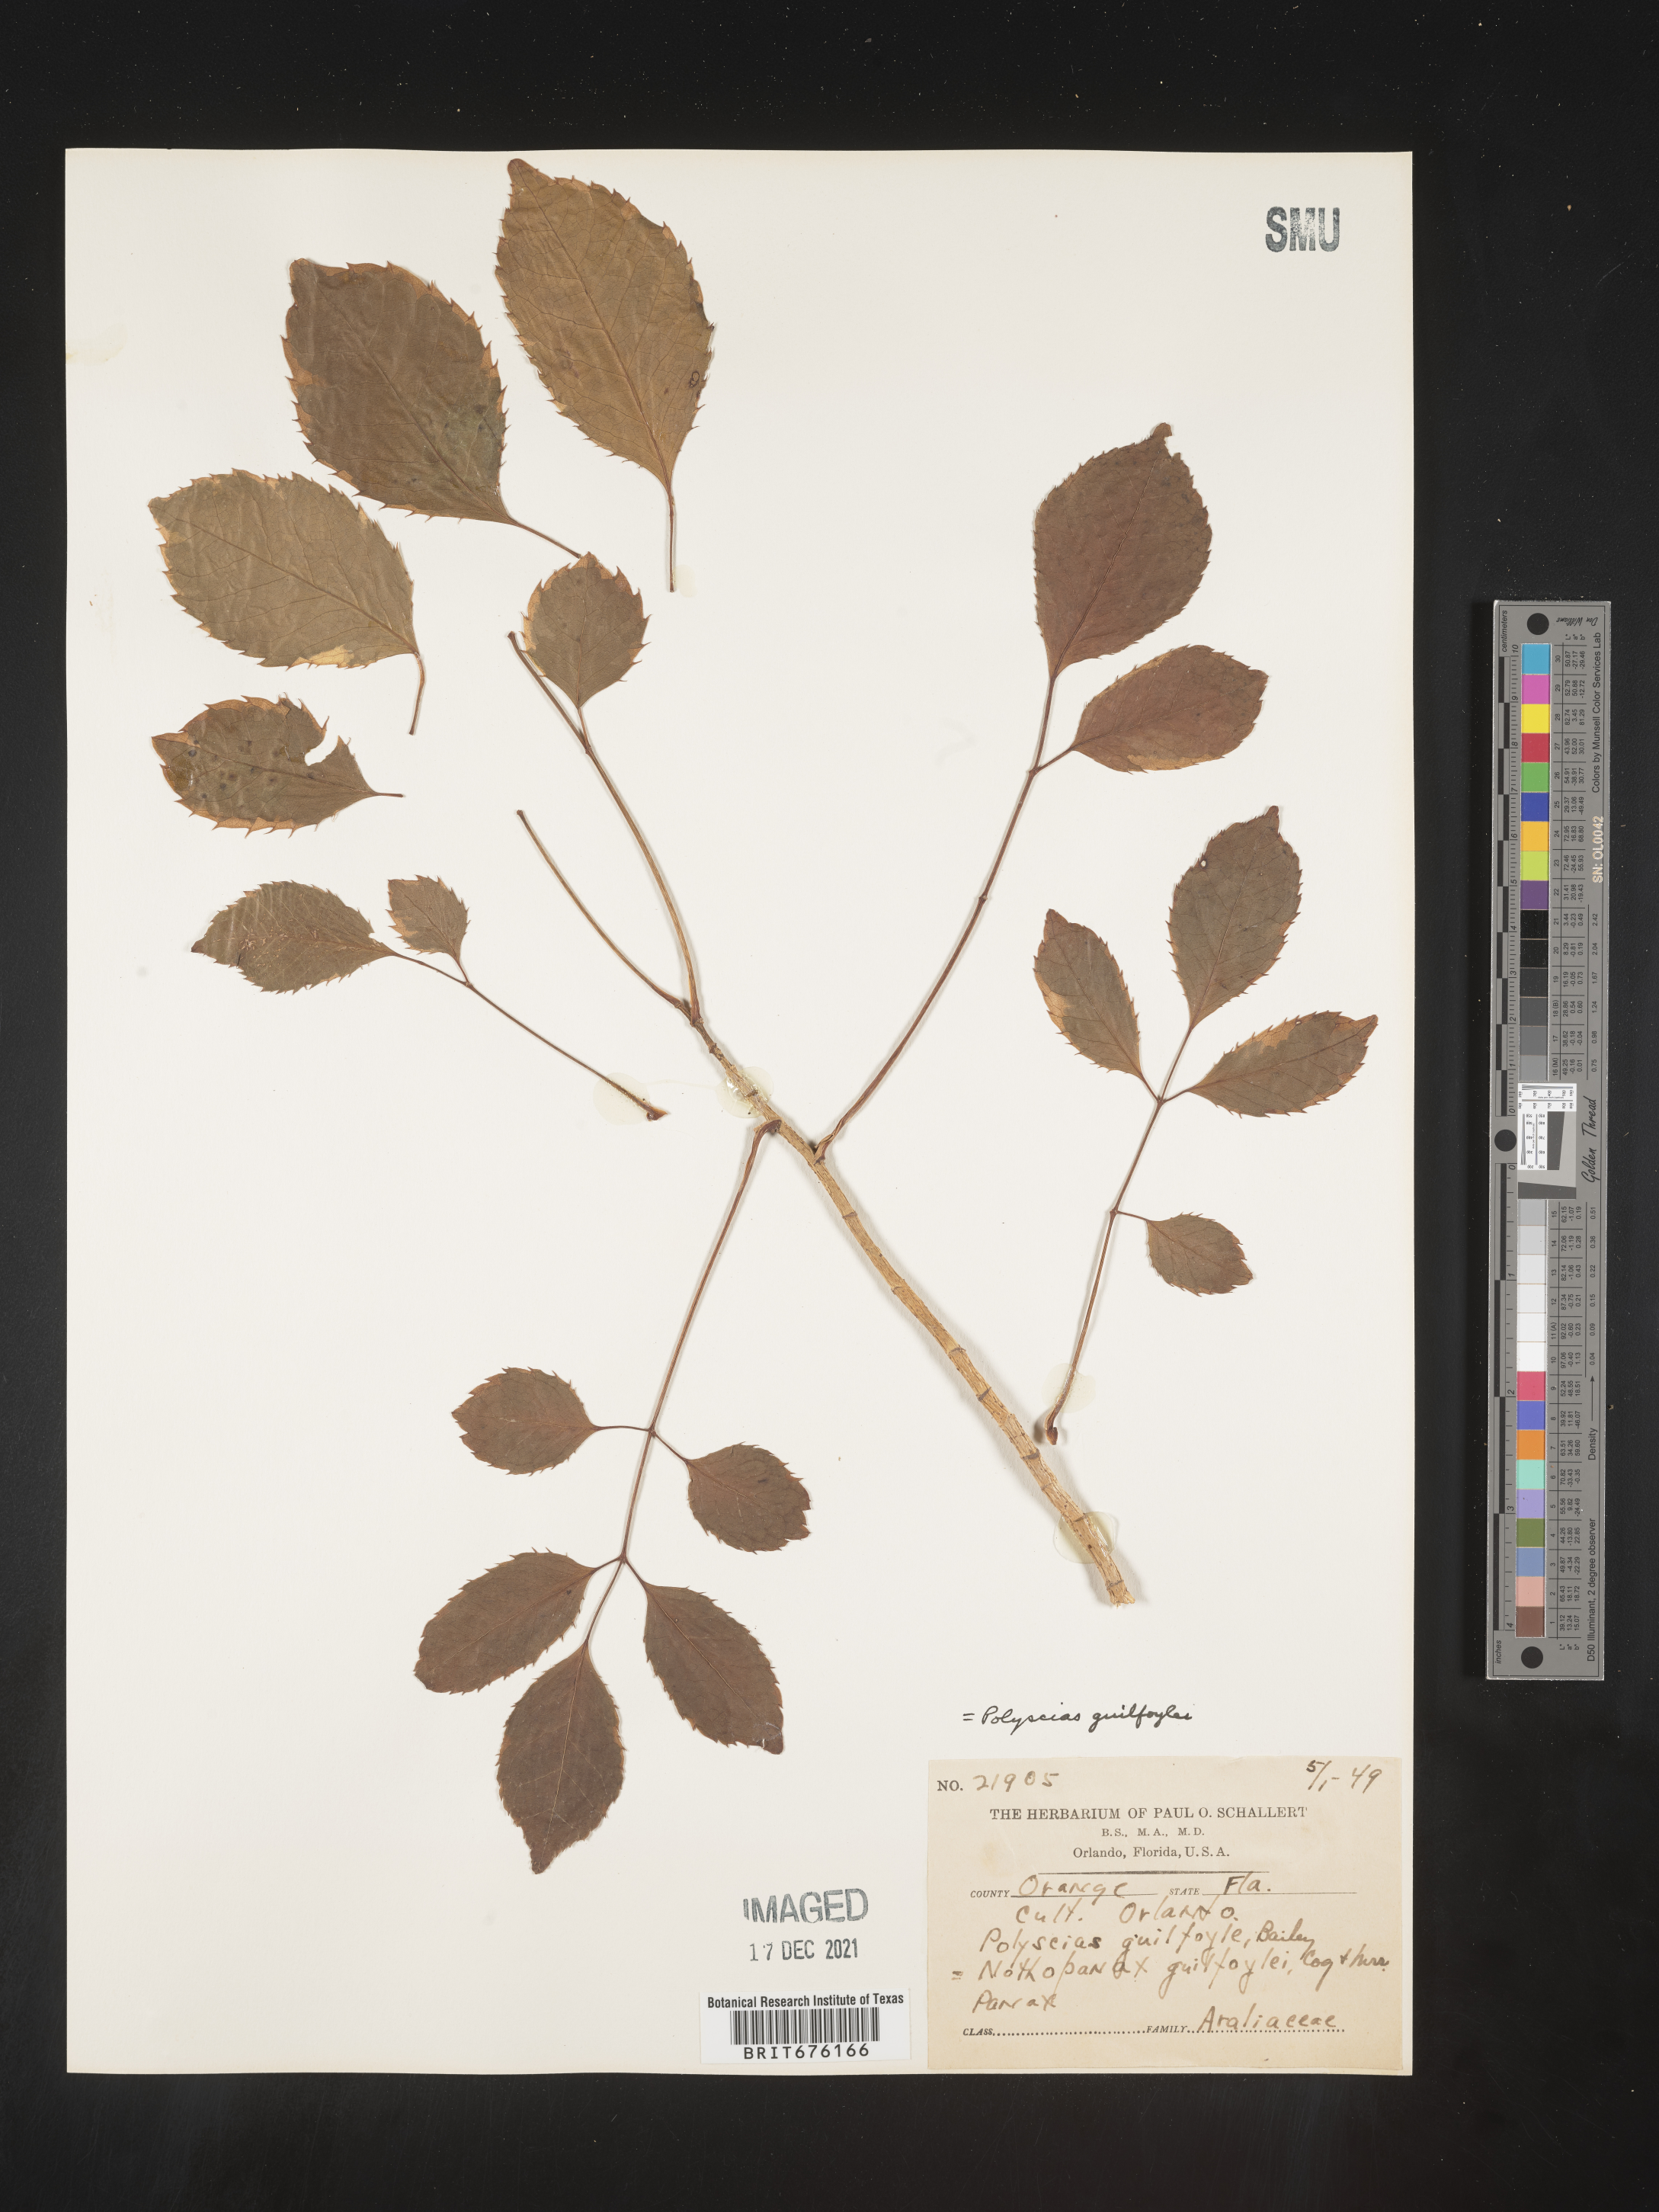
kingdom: Plantae
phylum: Tracheophyta
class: Magnoliopsida
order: Apiales
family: Araliaceae
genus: Polyscias
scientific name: Polyscias
